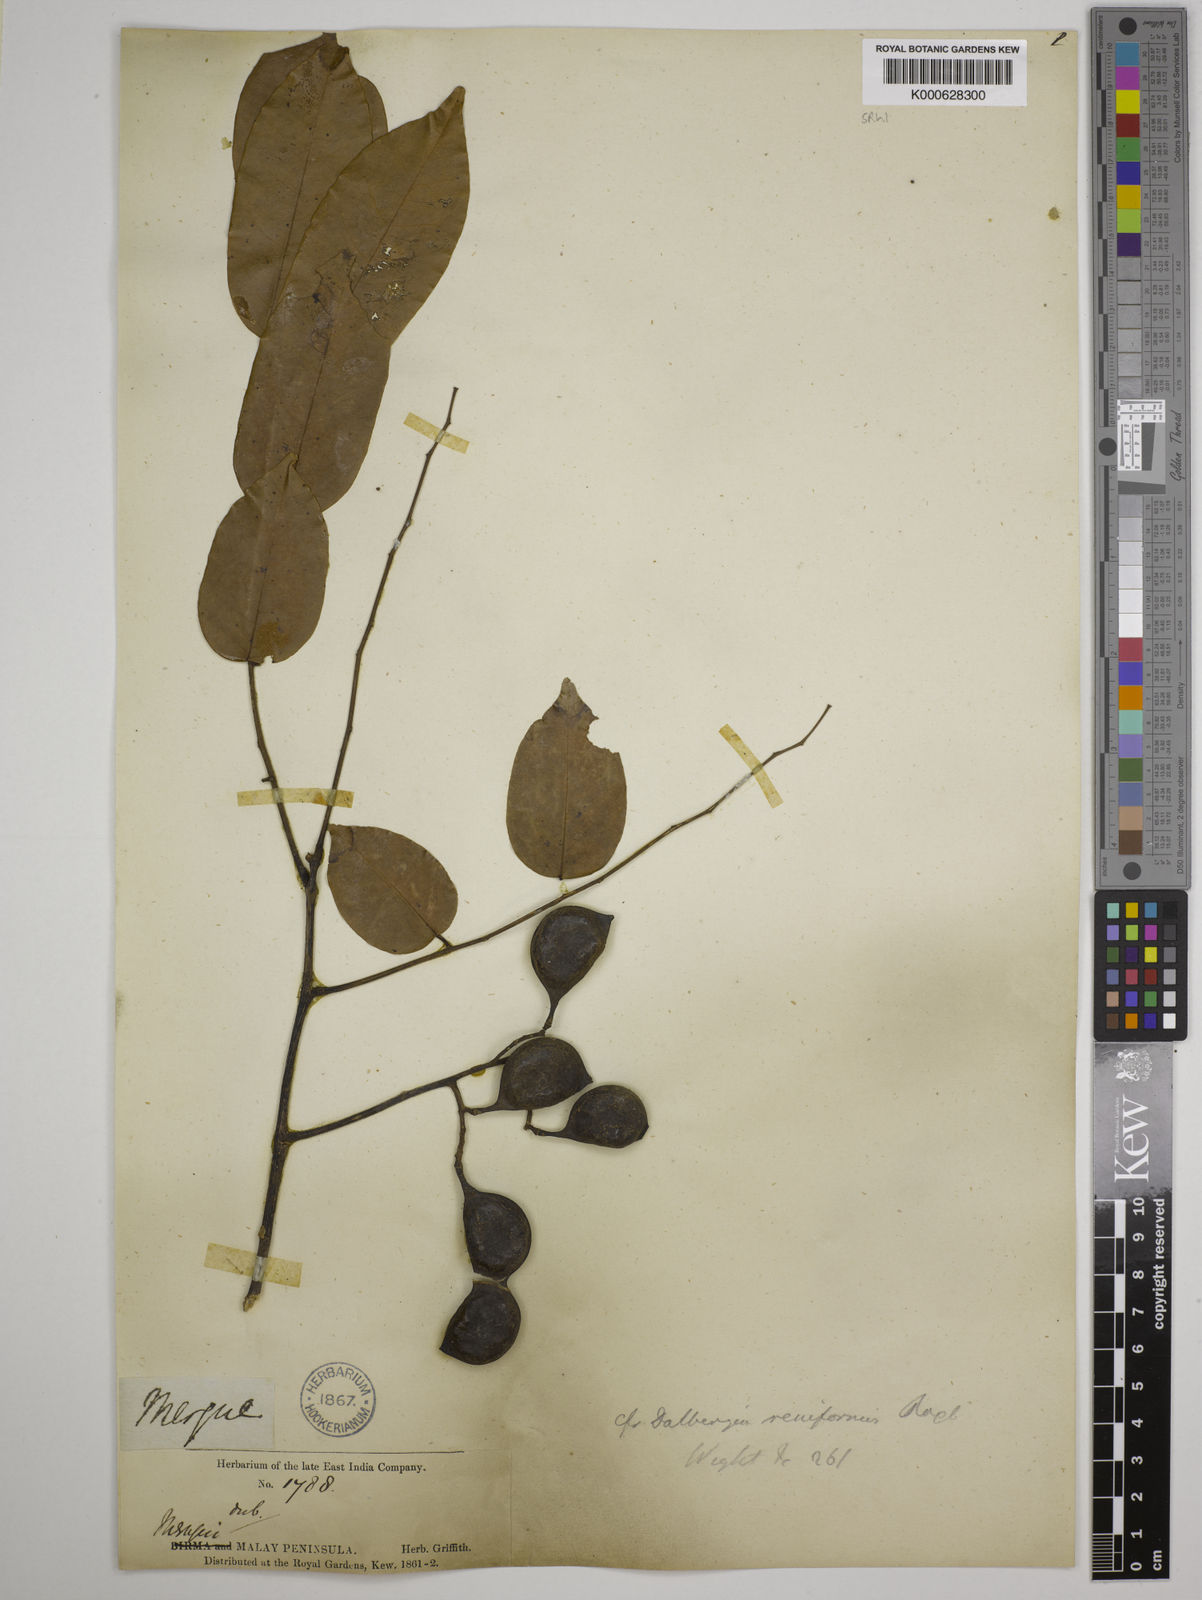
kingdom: Plantae
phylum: Tracheophyta
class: Magnoliopsida
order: Fabales
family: Fabaceae
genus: Dalbergia
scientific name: Dalbergia reniformis
